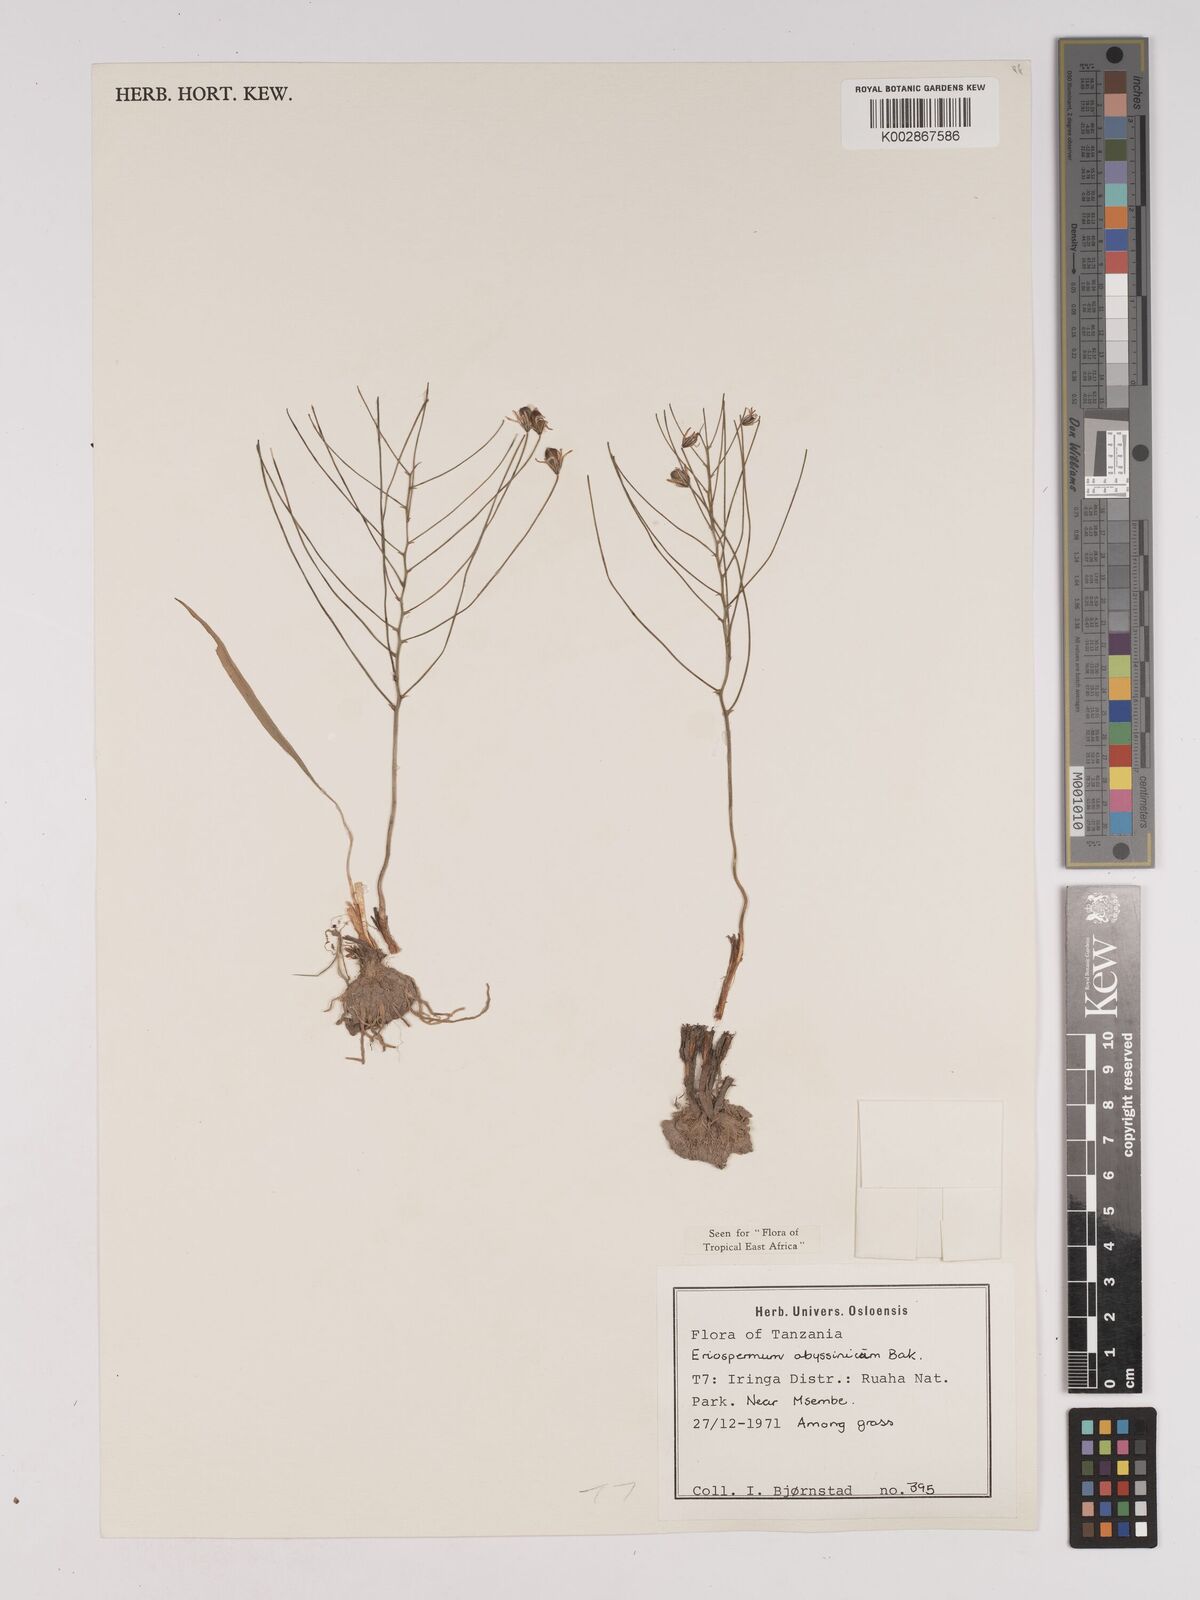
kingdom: Plantae
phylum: Tracheophyta
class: Liliopsida
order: Asparagales
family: Asparagaceae
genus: Eriospermum
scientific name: Eriospermum abyssinicum
